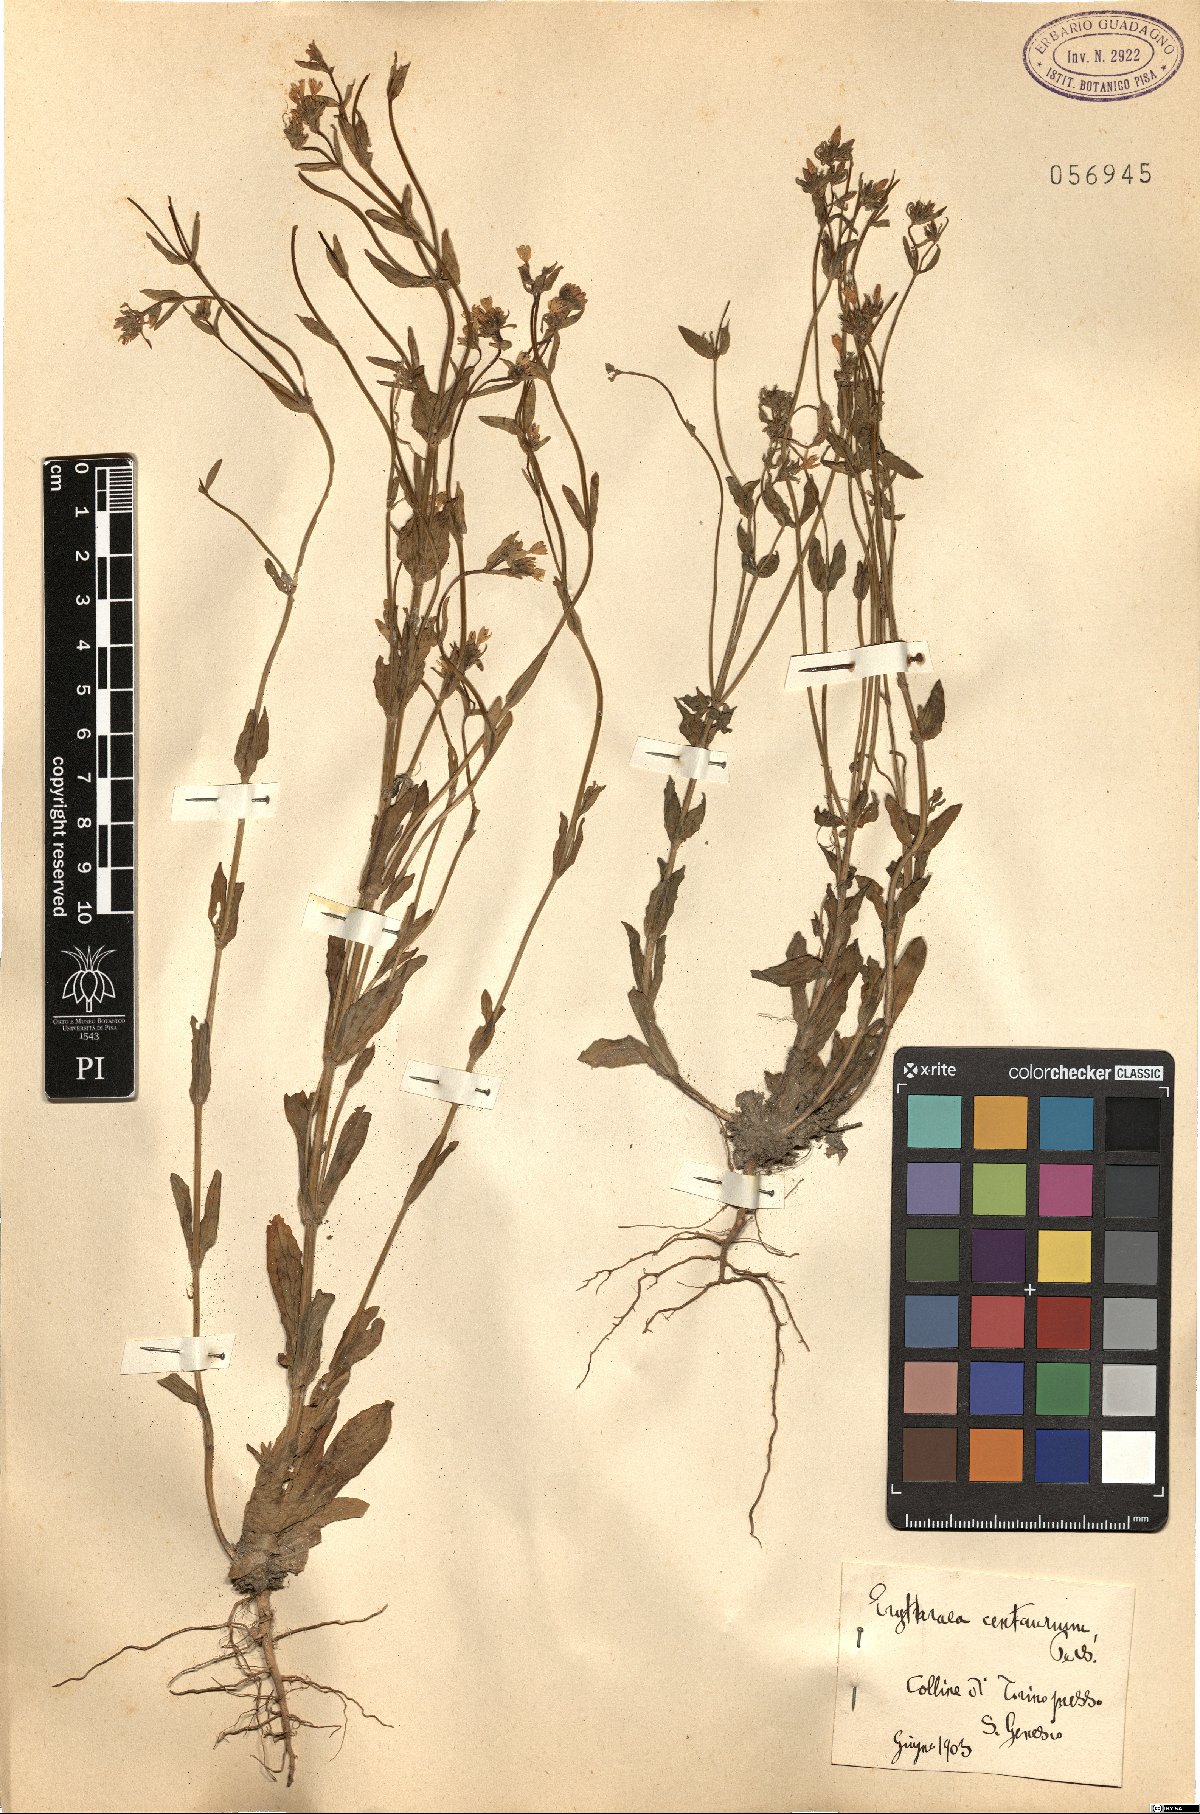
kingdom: Plantae
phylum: Tracheophyta
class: Magnoliopsida
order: Gentianales
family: Gentianaceae
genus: Centaurium
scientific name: Centaurium erythraea
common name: Common centaury
